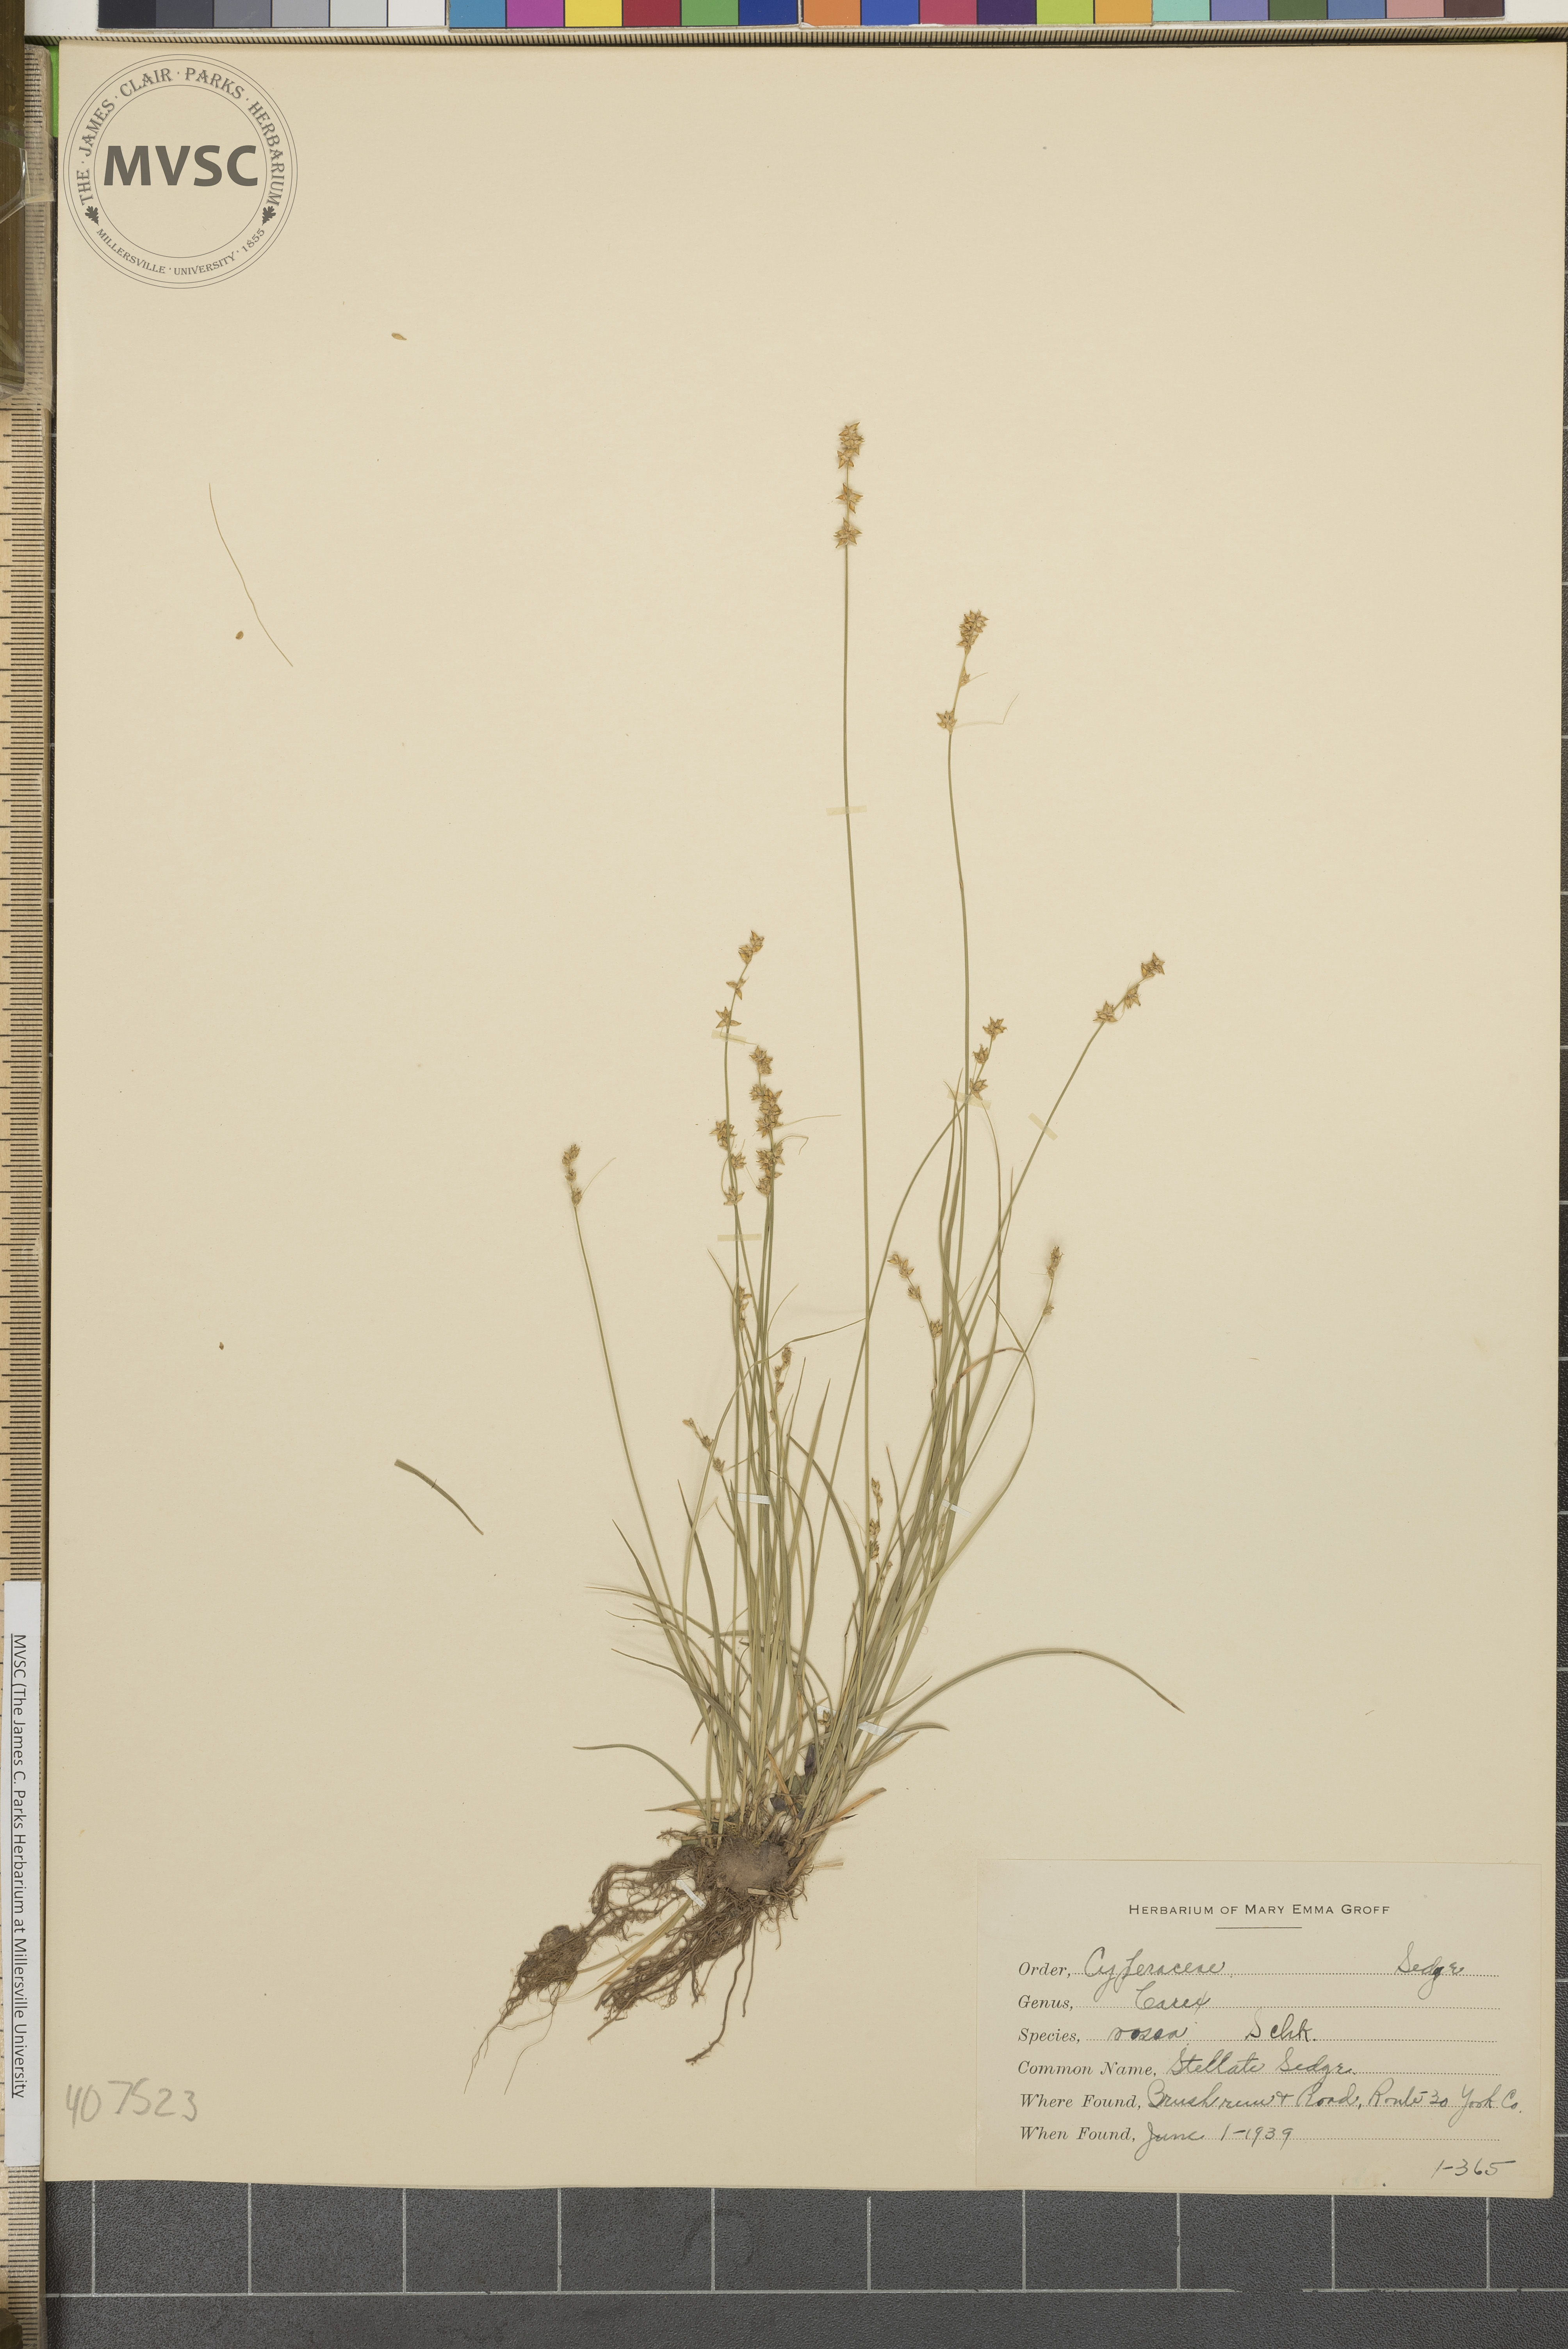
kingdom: Plantae
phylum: Tracheophyta
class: Liliopsida
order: Poales
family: Cyperaceae
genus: Carex
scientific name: Carex rosea
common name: Stellate Sedge
